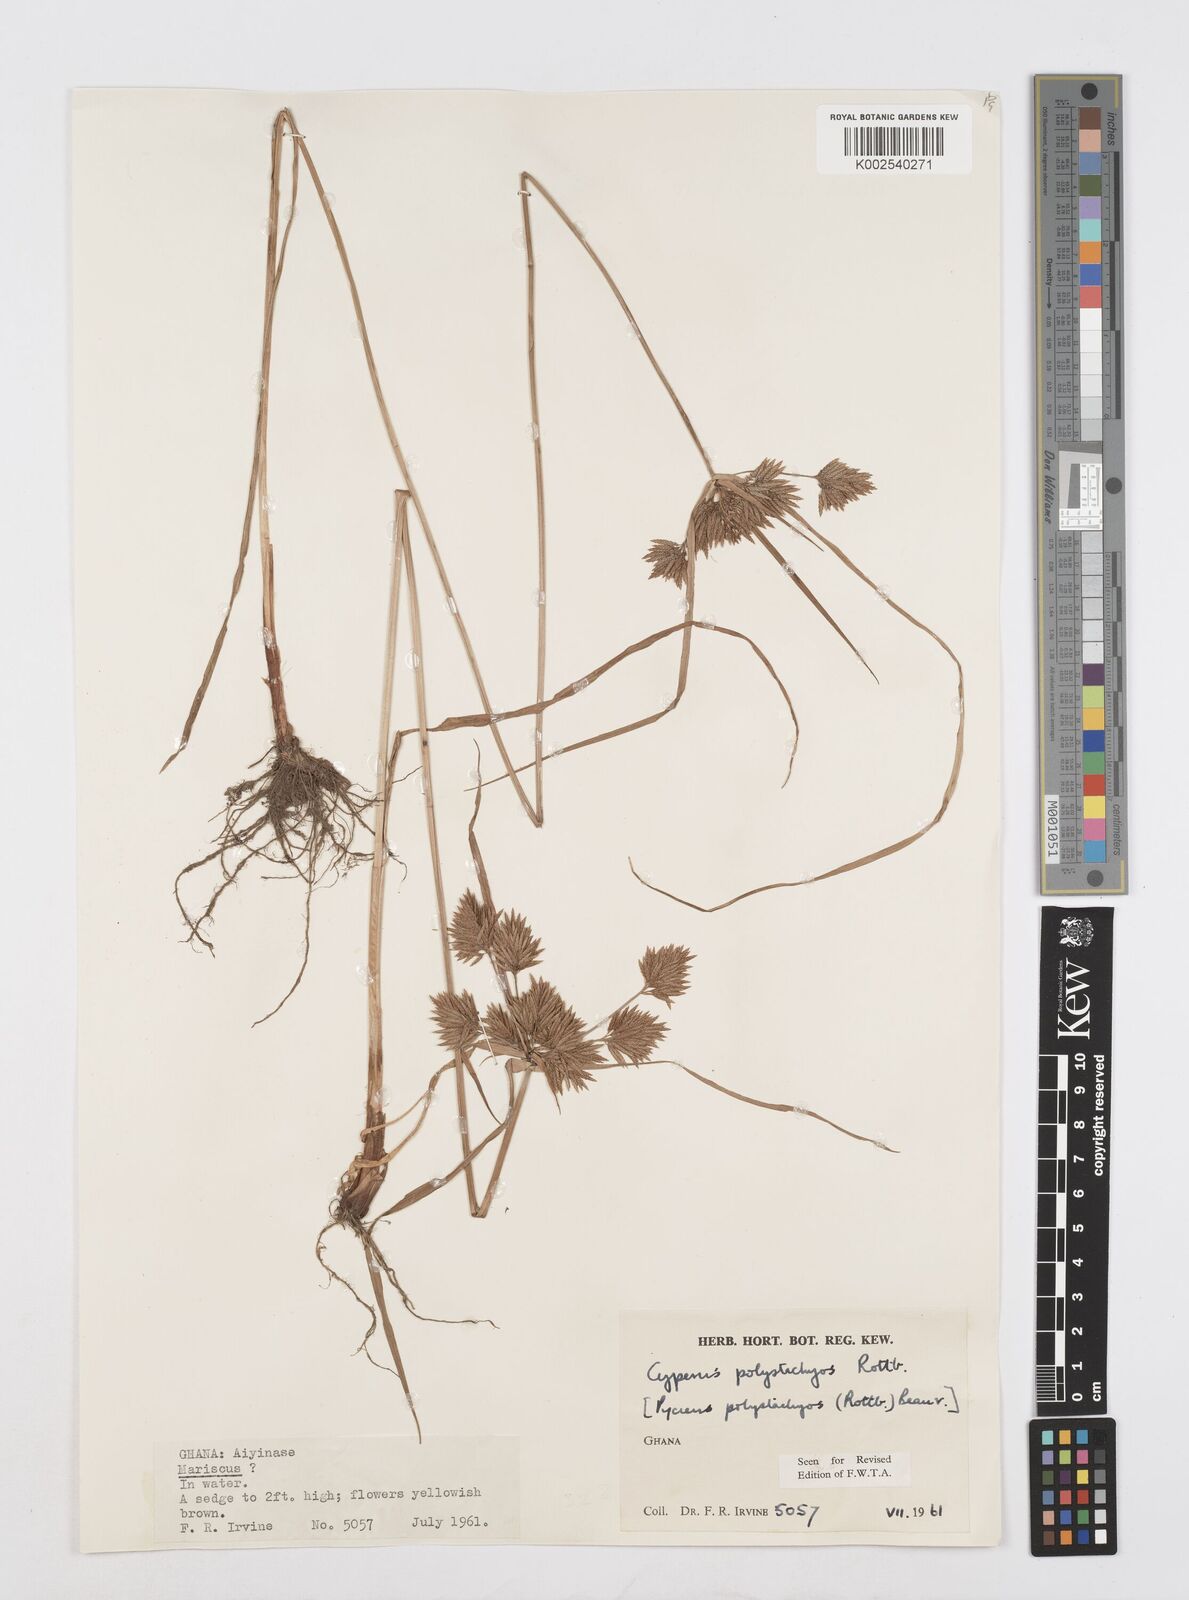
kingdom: Plantae
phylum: Tracheophyta
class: Liliopsida
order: Poales
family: Cyperaceae
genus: Cyperus
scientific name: Cyperus polystachyos
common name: Bunchy flat sedge
